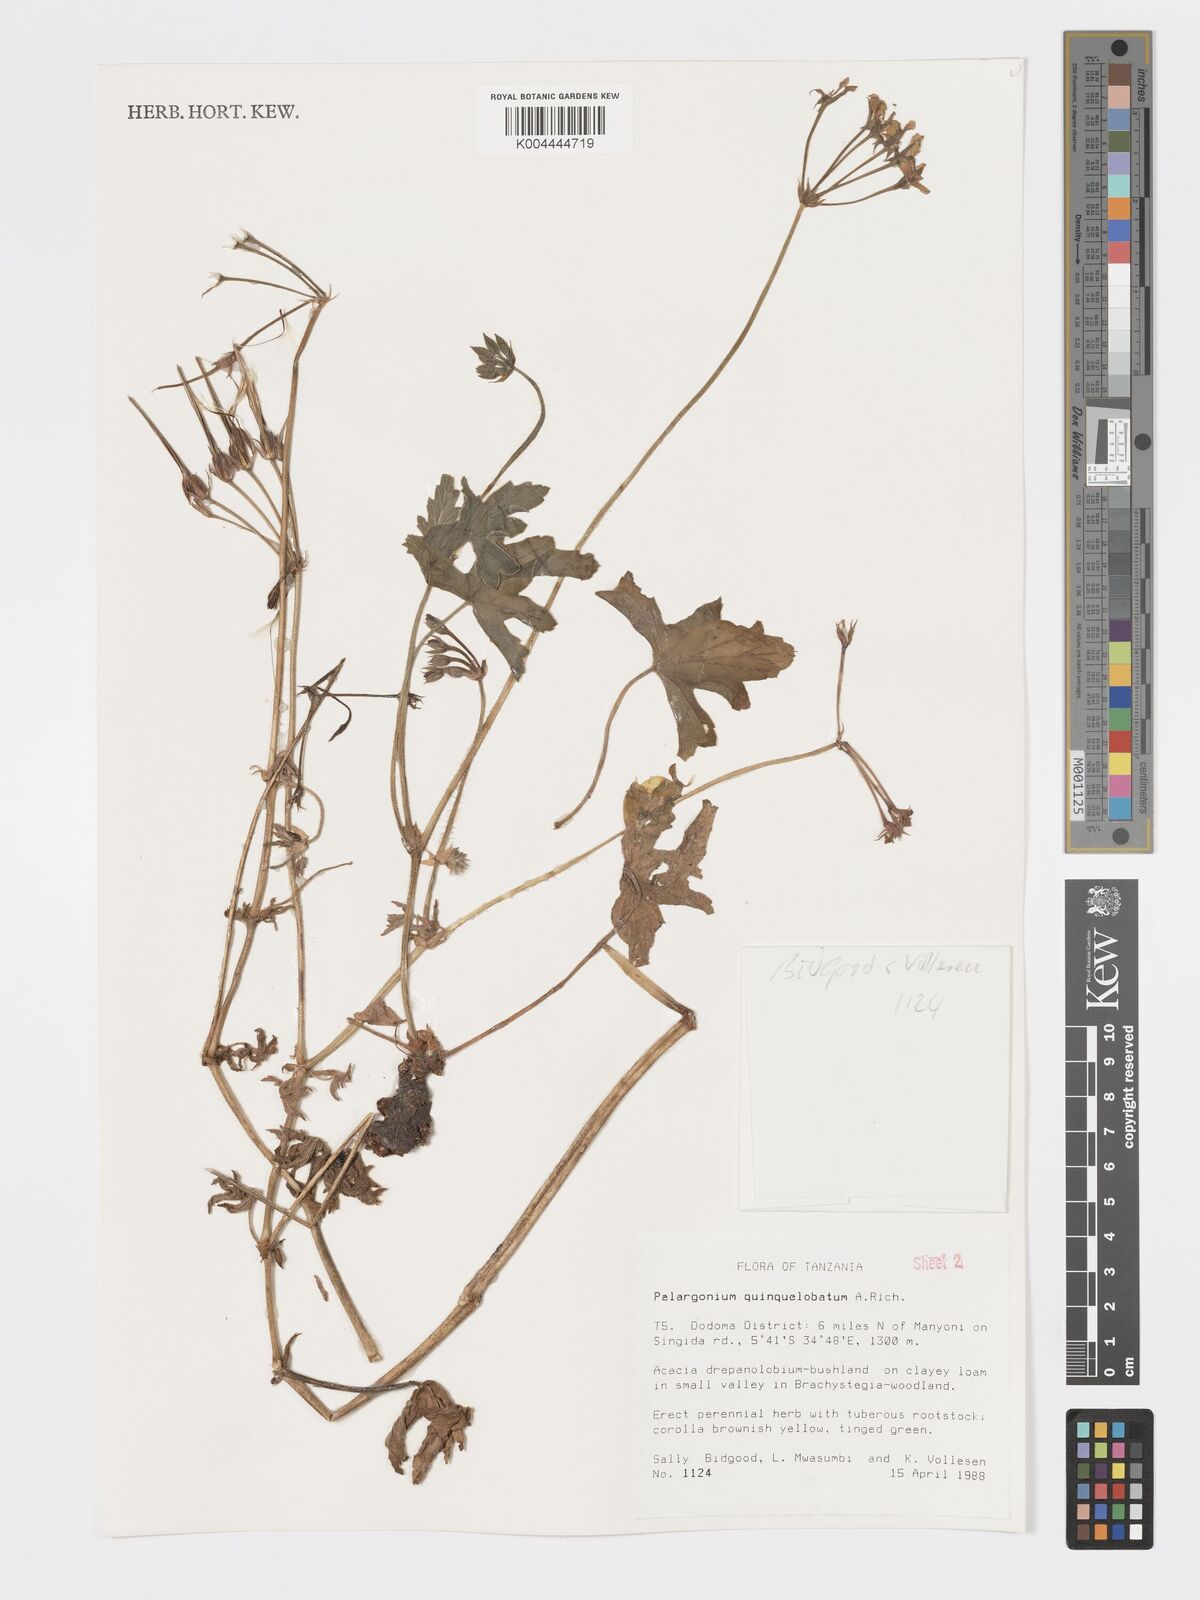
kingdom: Plantae
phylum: Tracheophyta
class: Magnoliopsida
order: Geraniales
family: Geraniaceae
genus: Pelargonium
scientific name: Pelargonium quinquelobatum
